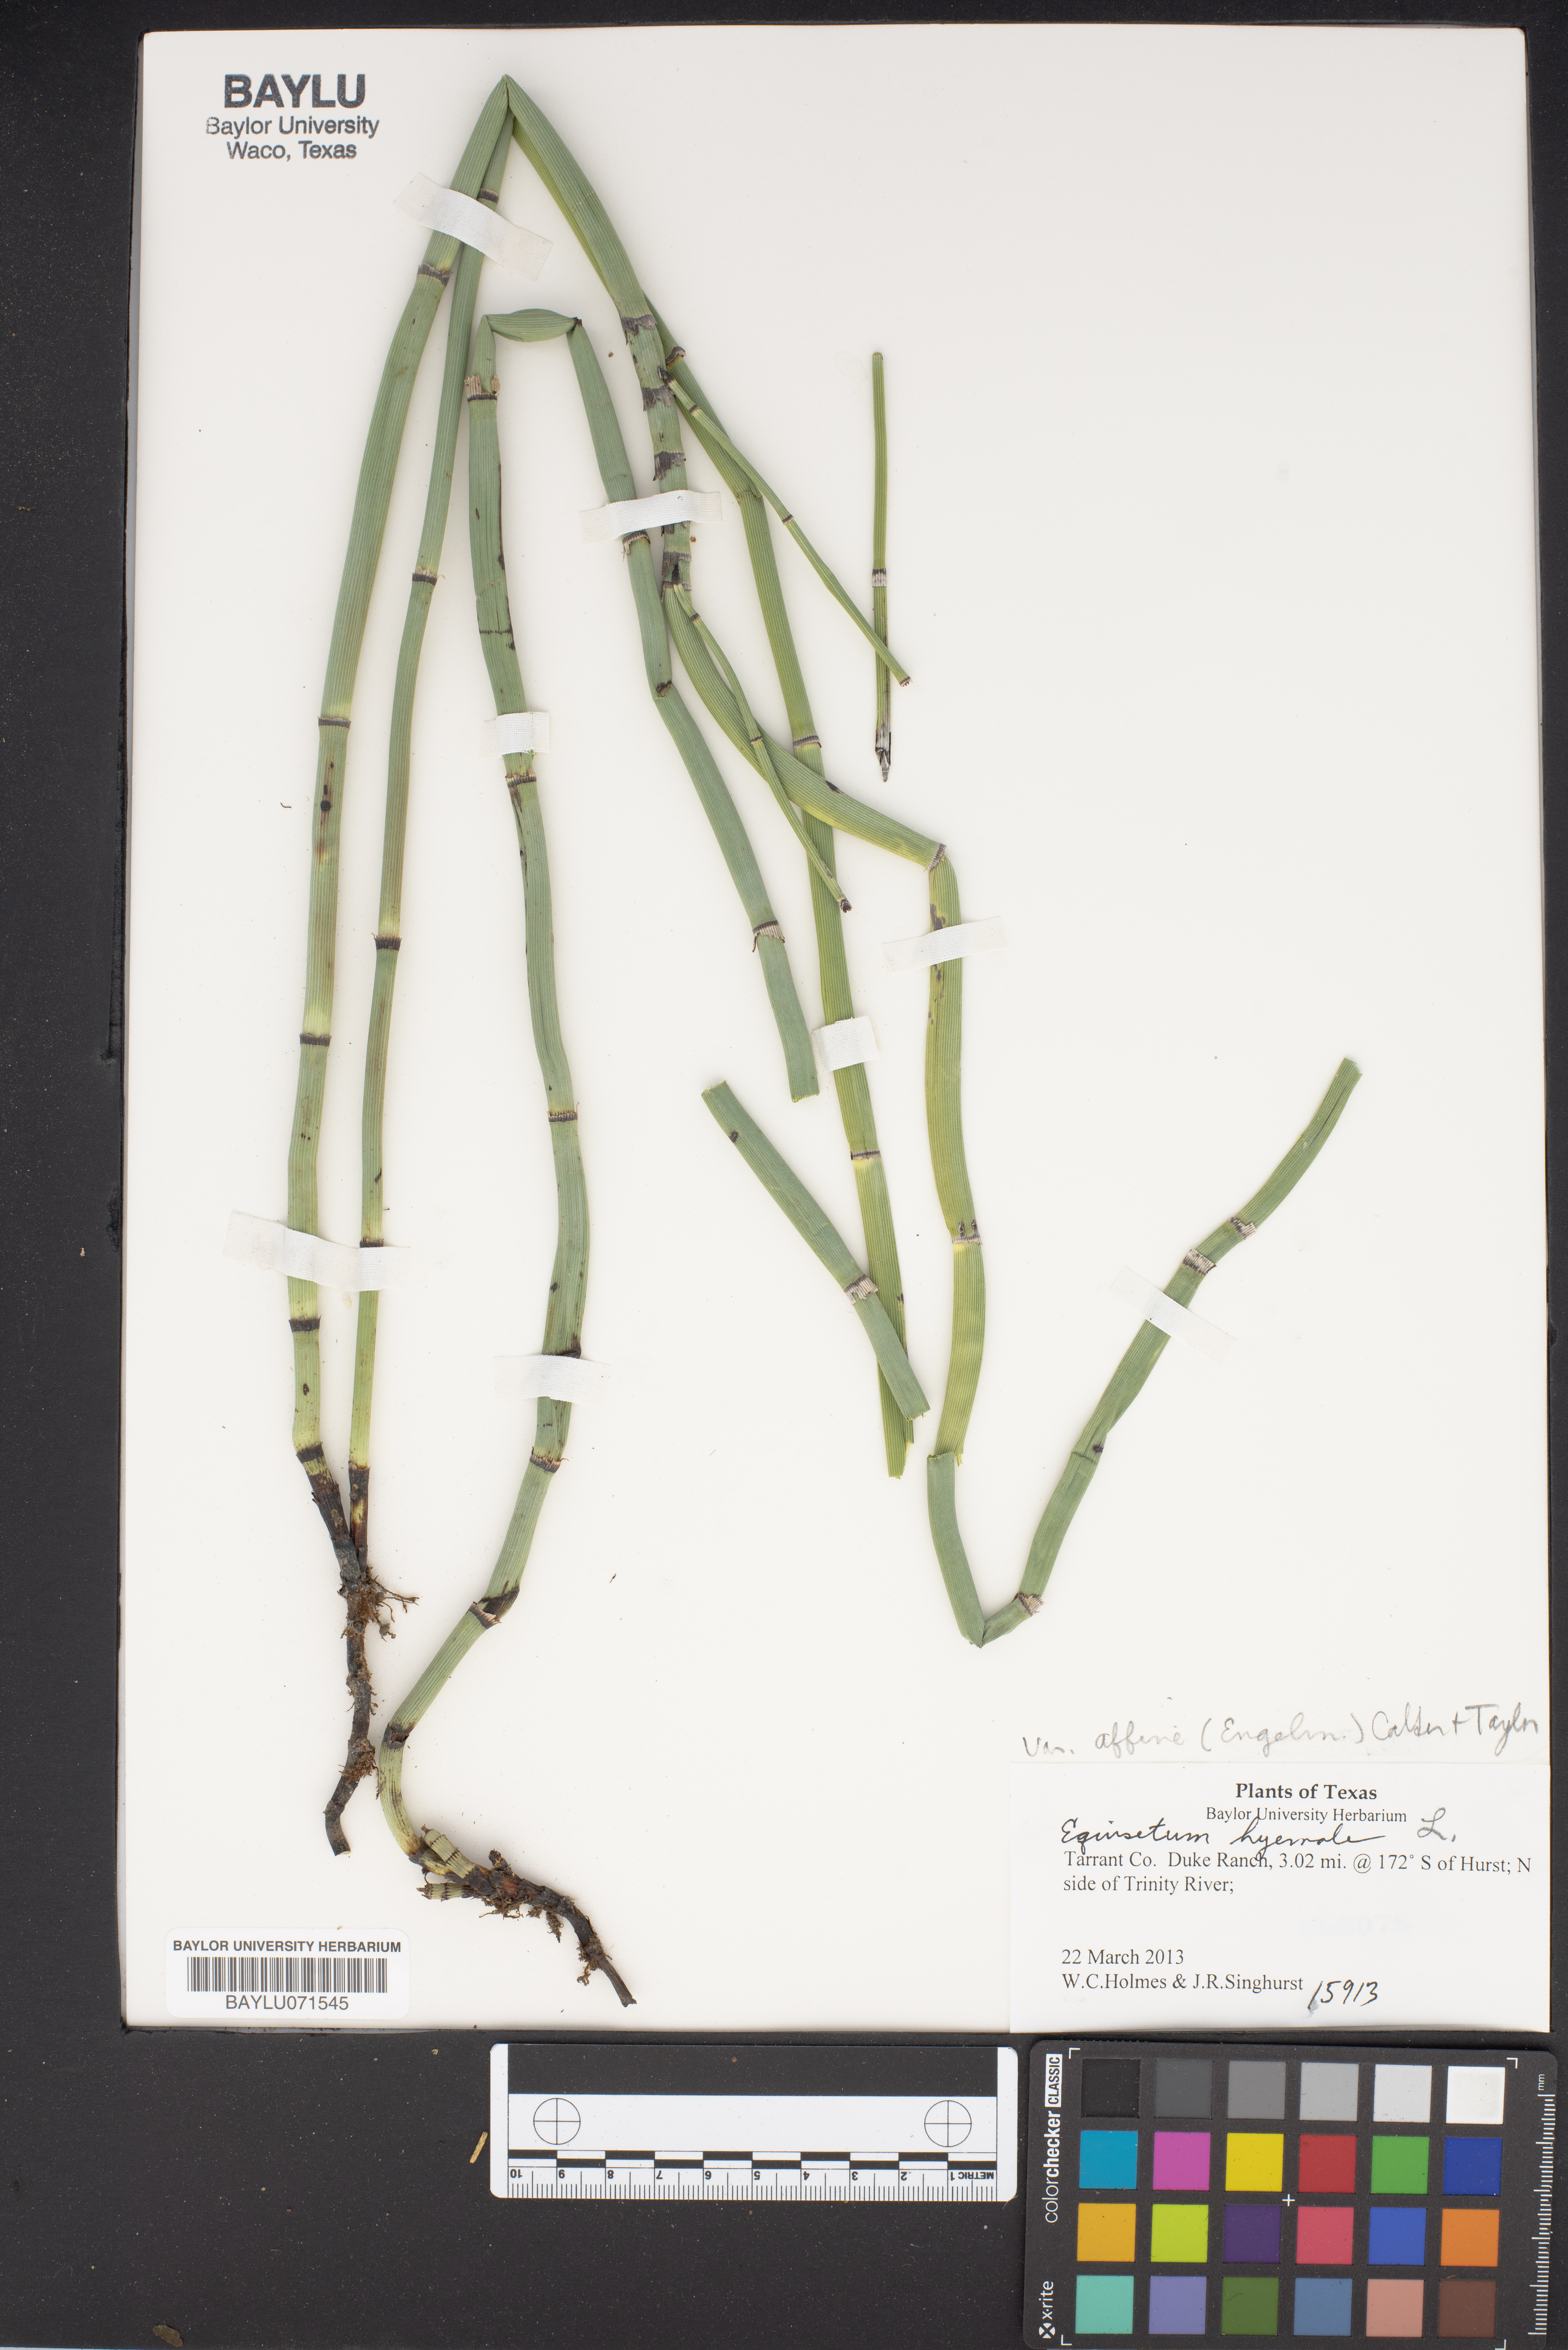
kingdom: Plantae
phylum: Tracheophyta
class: Polypodiopsida
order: Equisetales
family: Equisetaceae
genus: Equisetum
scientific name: Equisetum praealtum
